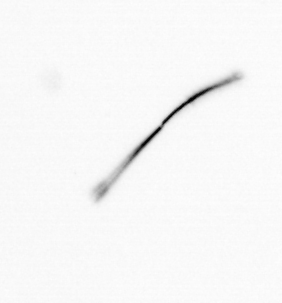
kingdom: Chromista
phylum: Ochrophyta
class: Bacillariophyceae
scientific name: Bacillariophyceae
